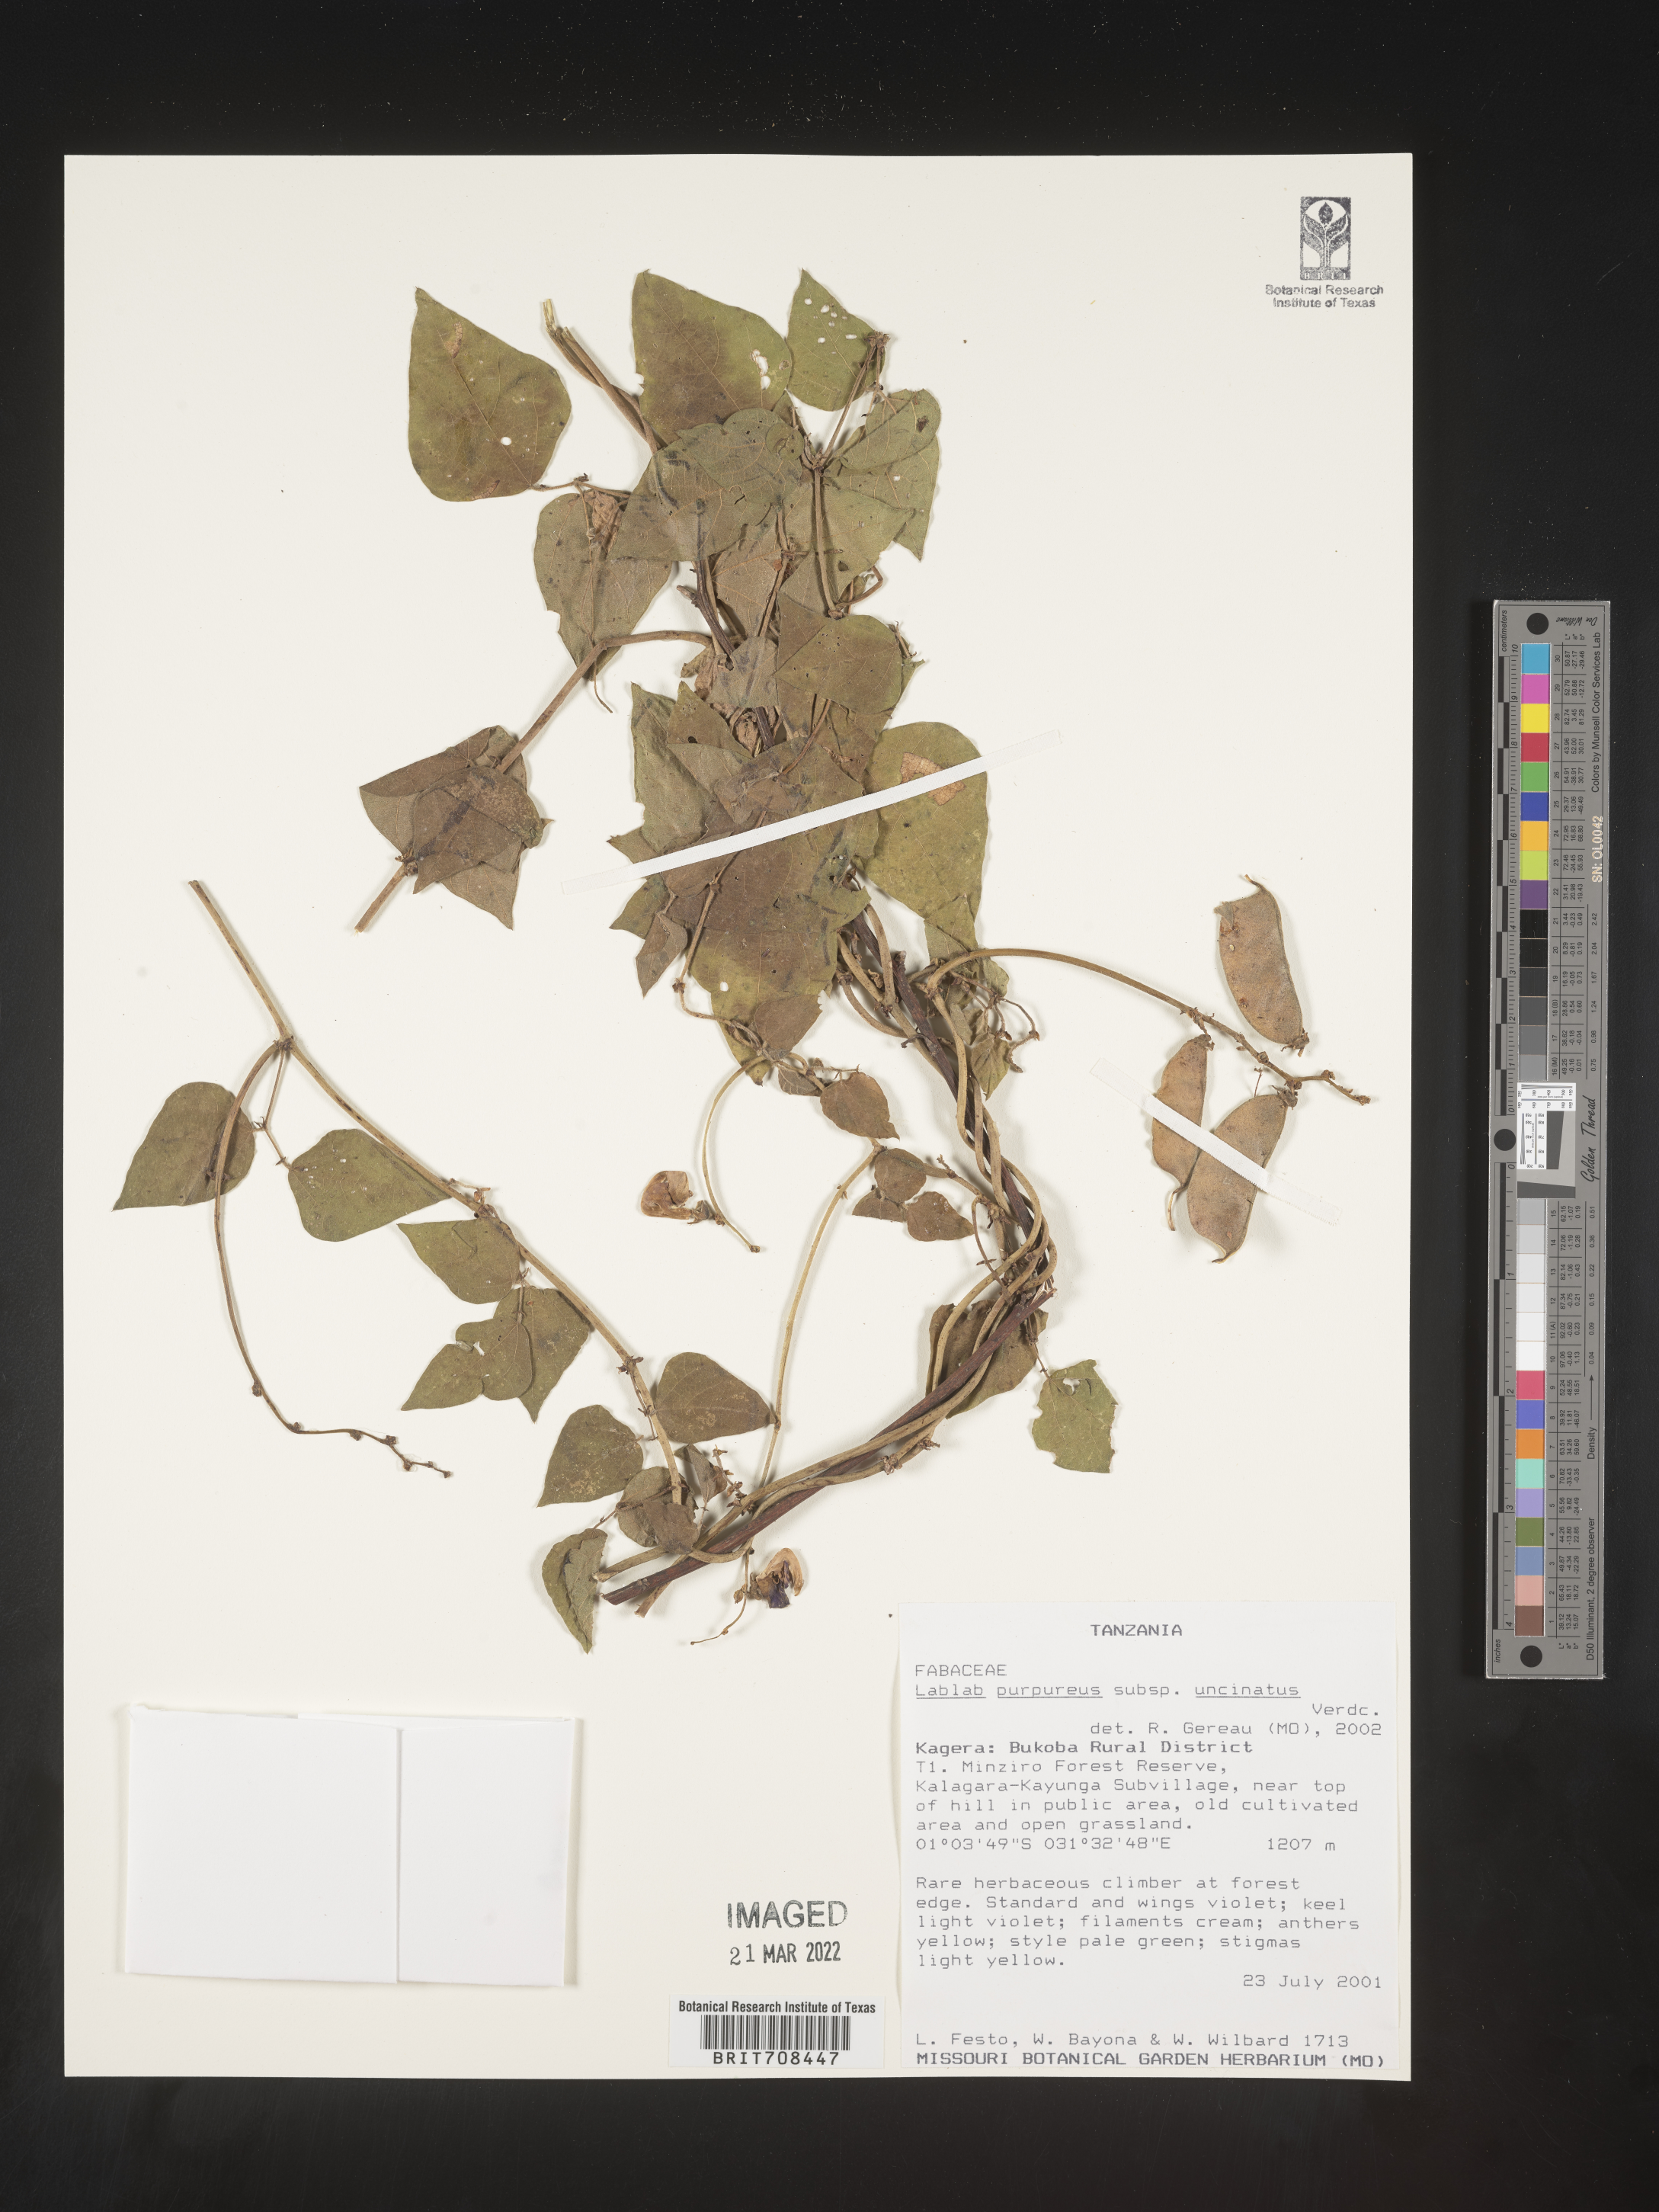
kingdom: Plantae
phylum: Tracheophyta
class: Magnoliopsida
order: Fabales
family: Fabaceae
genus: Lablab
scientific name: Lablab
